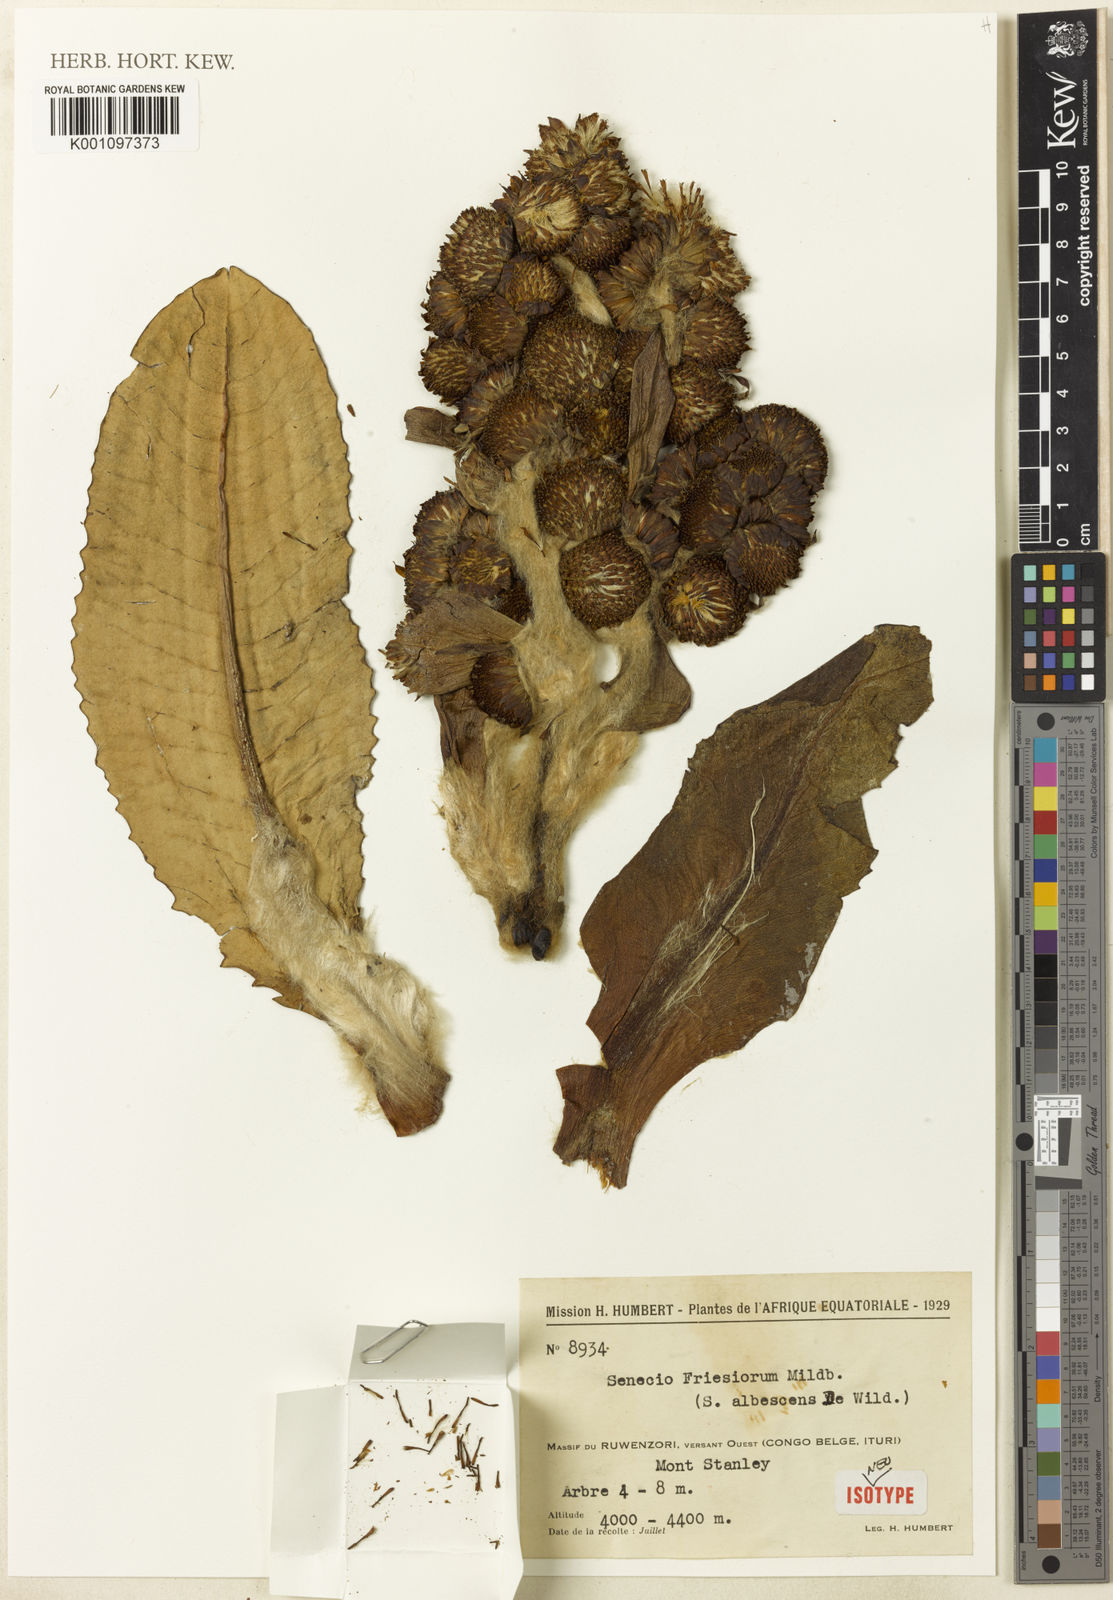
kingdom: Plantae
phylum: Tracheophyta
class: Magnoliopsida
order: Asterales
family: Asteraceae
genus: Dendrosenecio
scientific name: Dendrosenecio adnivalis
